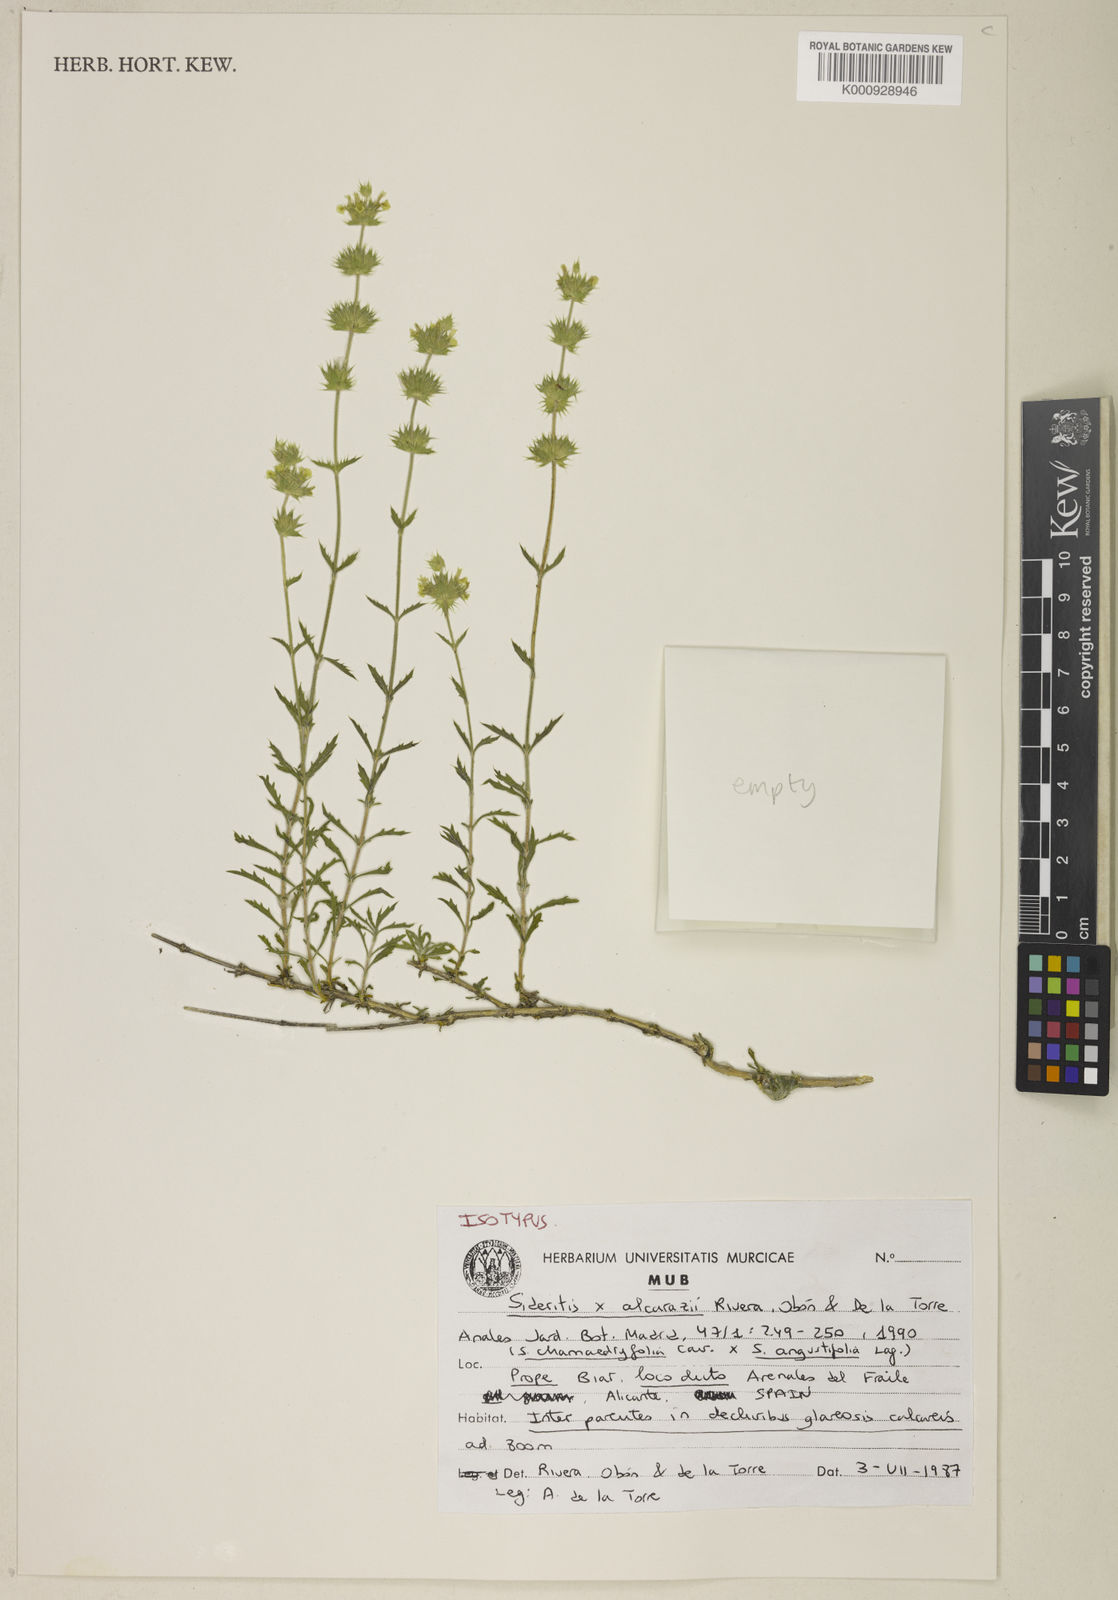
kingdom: Plantae
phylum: Tracheophyta
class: Magnoliopsida
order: Lamiales
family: Lamiaceae
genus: Sideritis
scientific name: Sideritis
